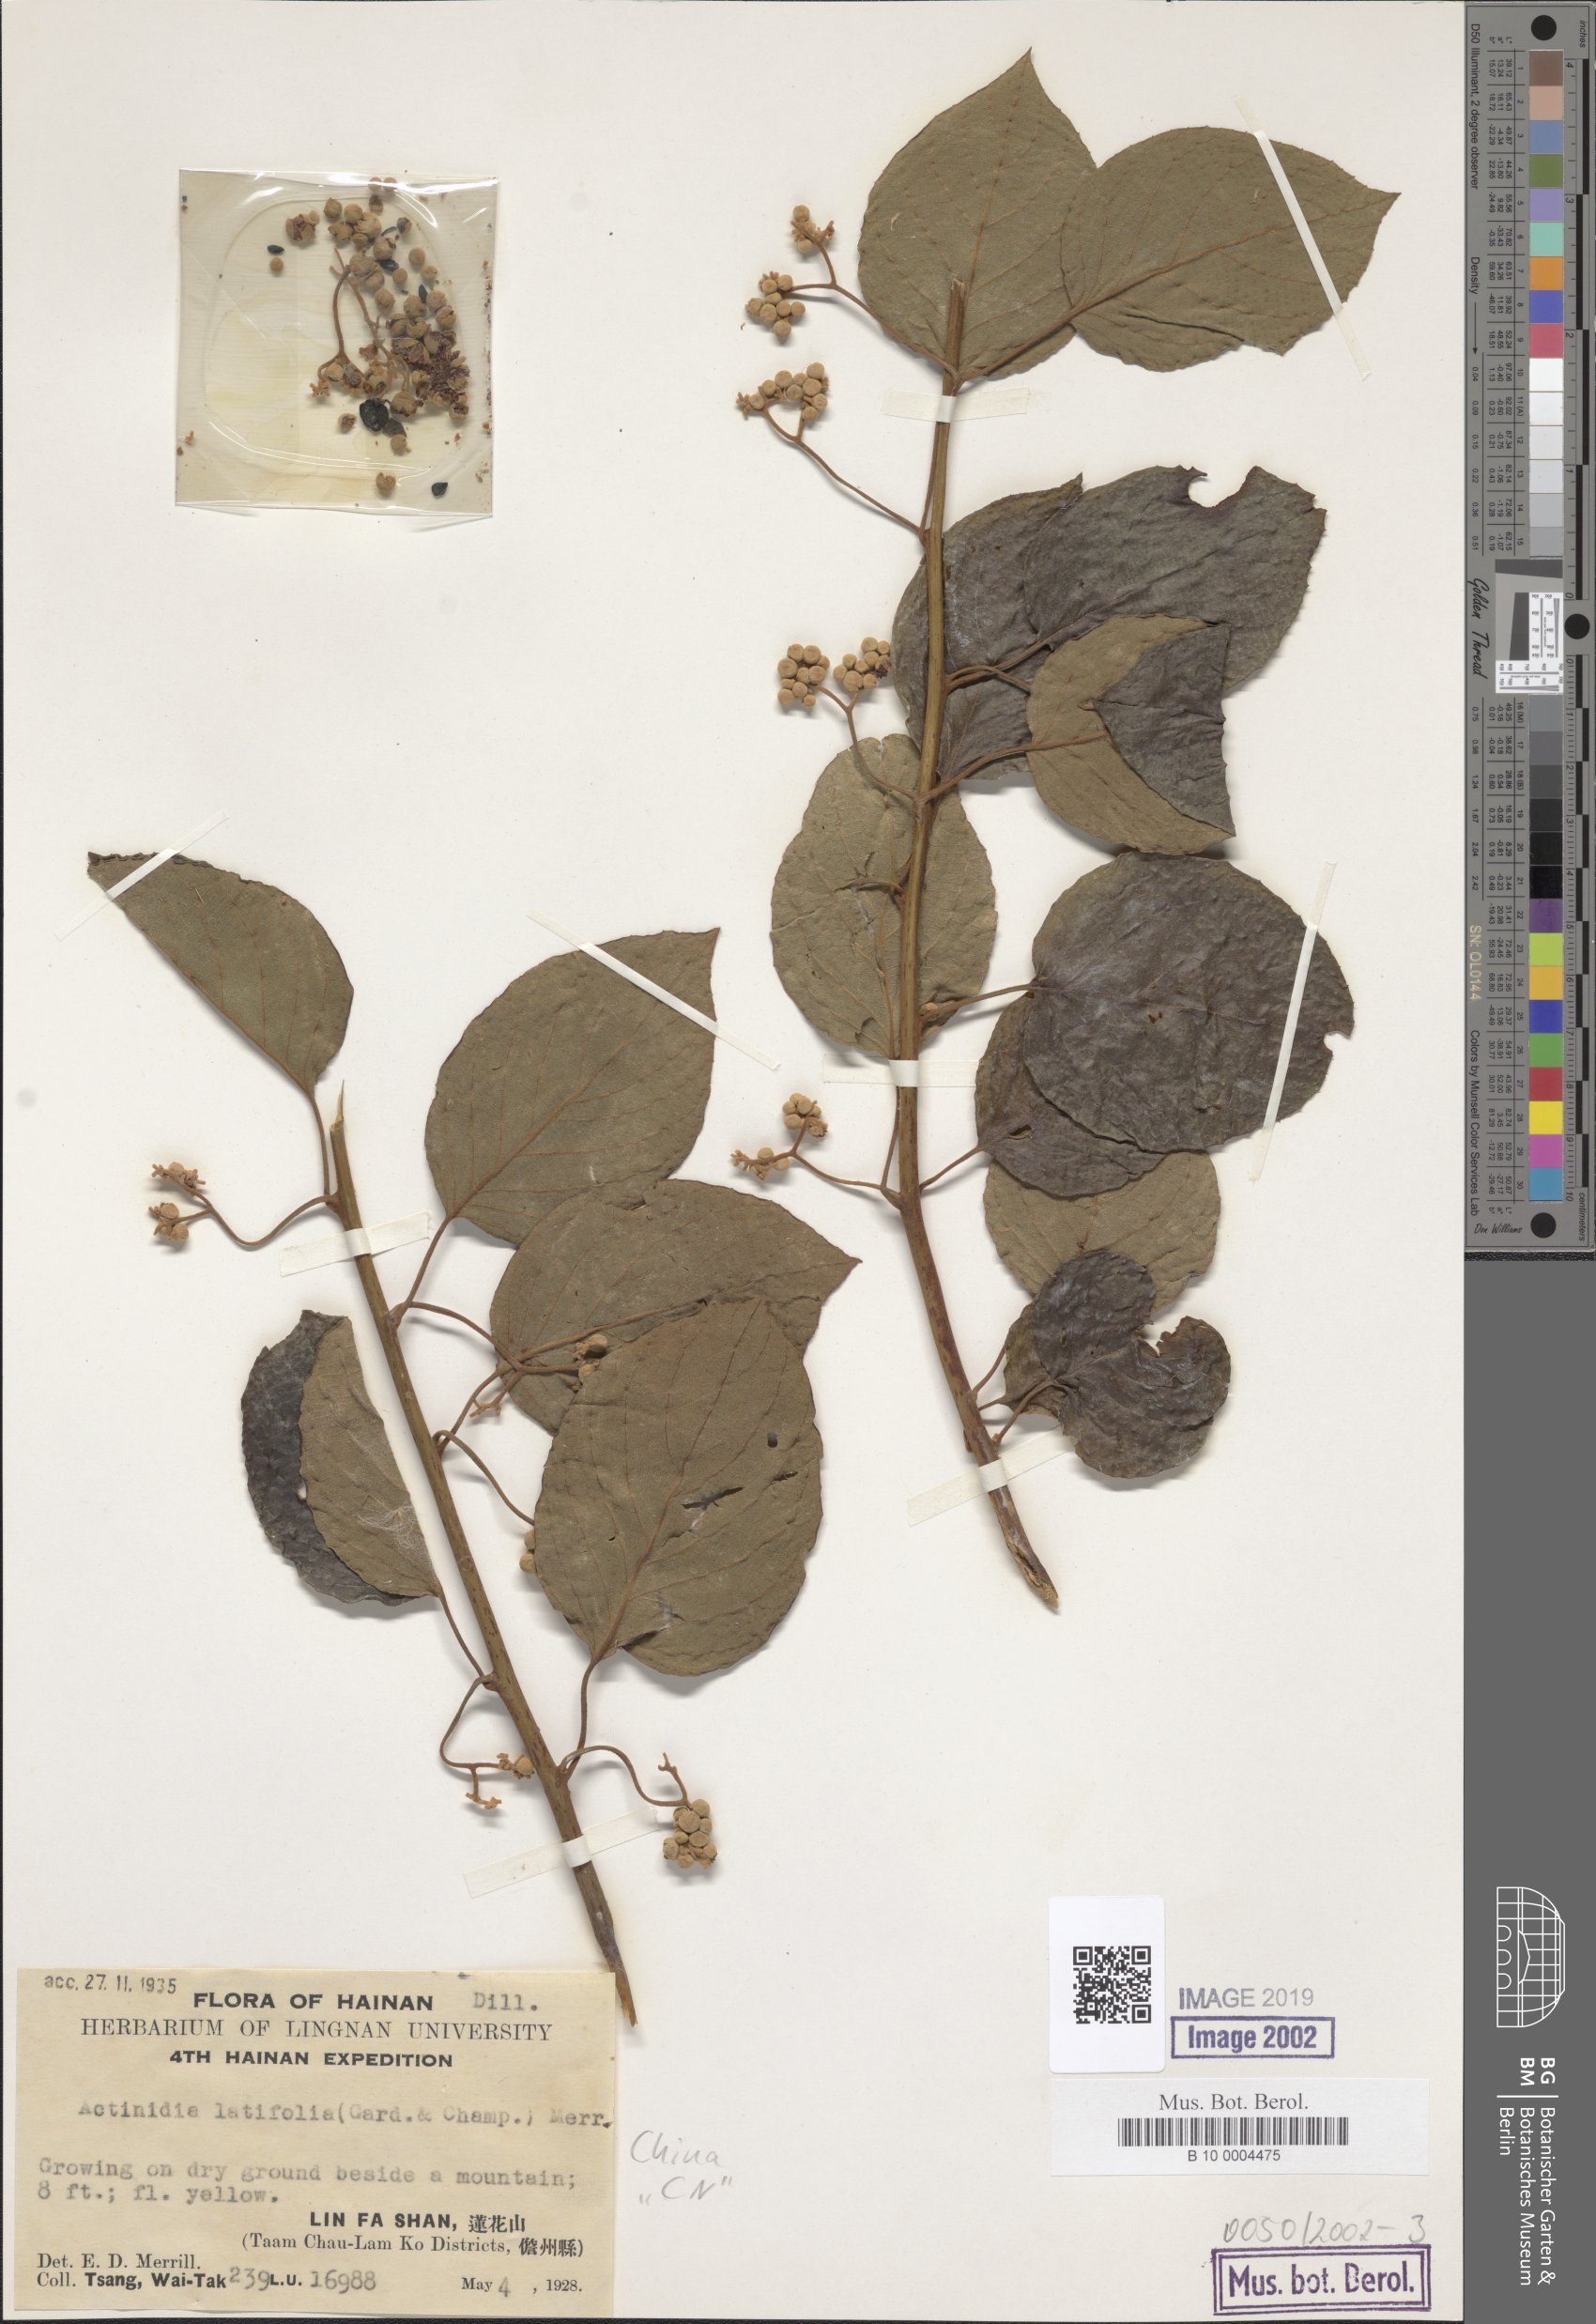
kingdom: Plantae
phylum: Tracheophyta
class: Magnoliopsida
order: Ericales
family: Actinidiaceae
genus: Actinidia
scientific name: Actinidia arguta
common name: Tara vine
